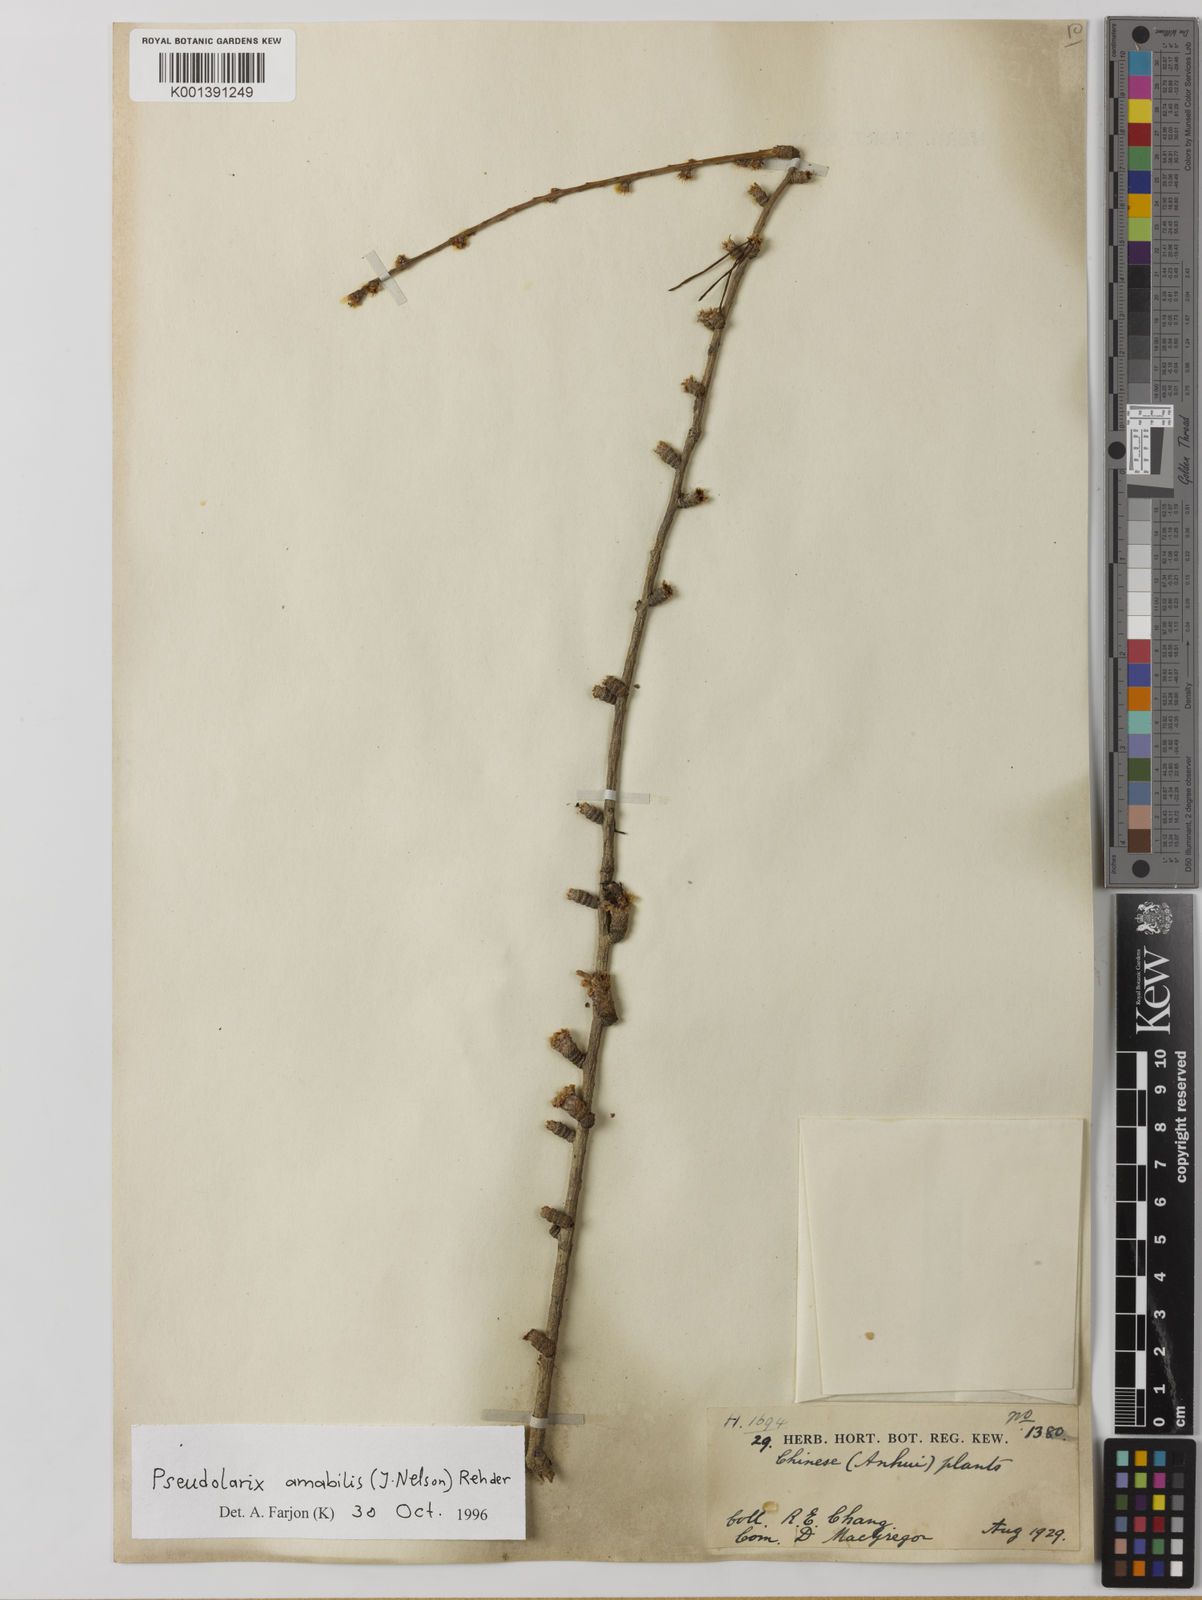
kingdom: Plantae
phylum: Tracheophyta
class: Pinopsida
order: Pinales
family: Pinaceae
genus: Pseudolarix
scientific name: Pseudolarix amabilis
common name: Chinese golden larch
